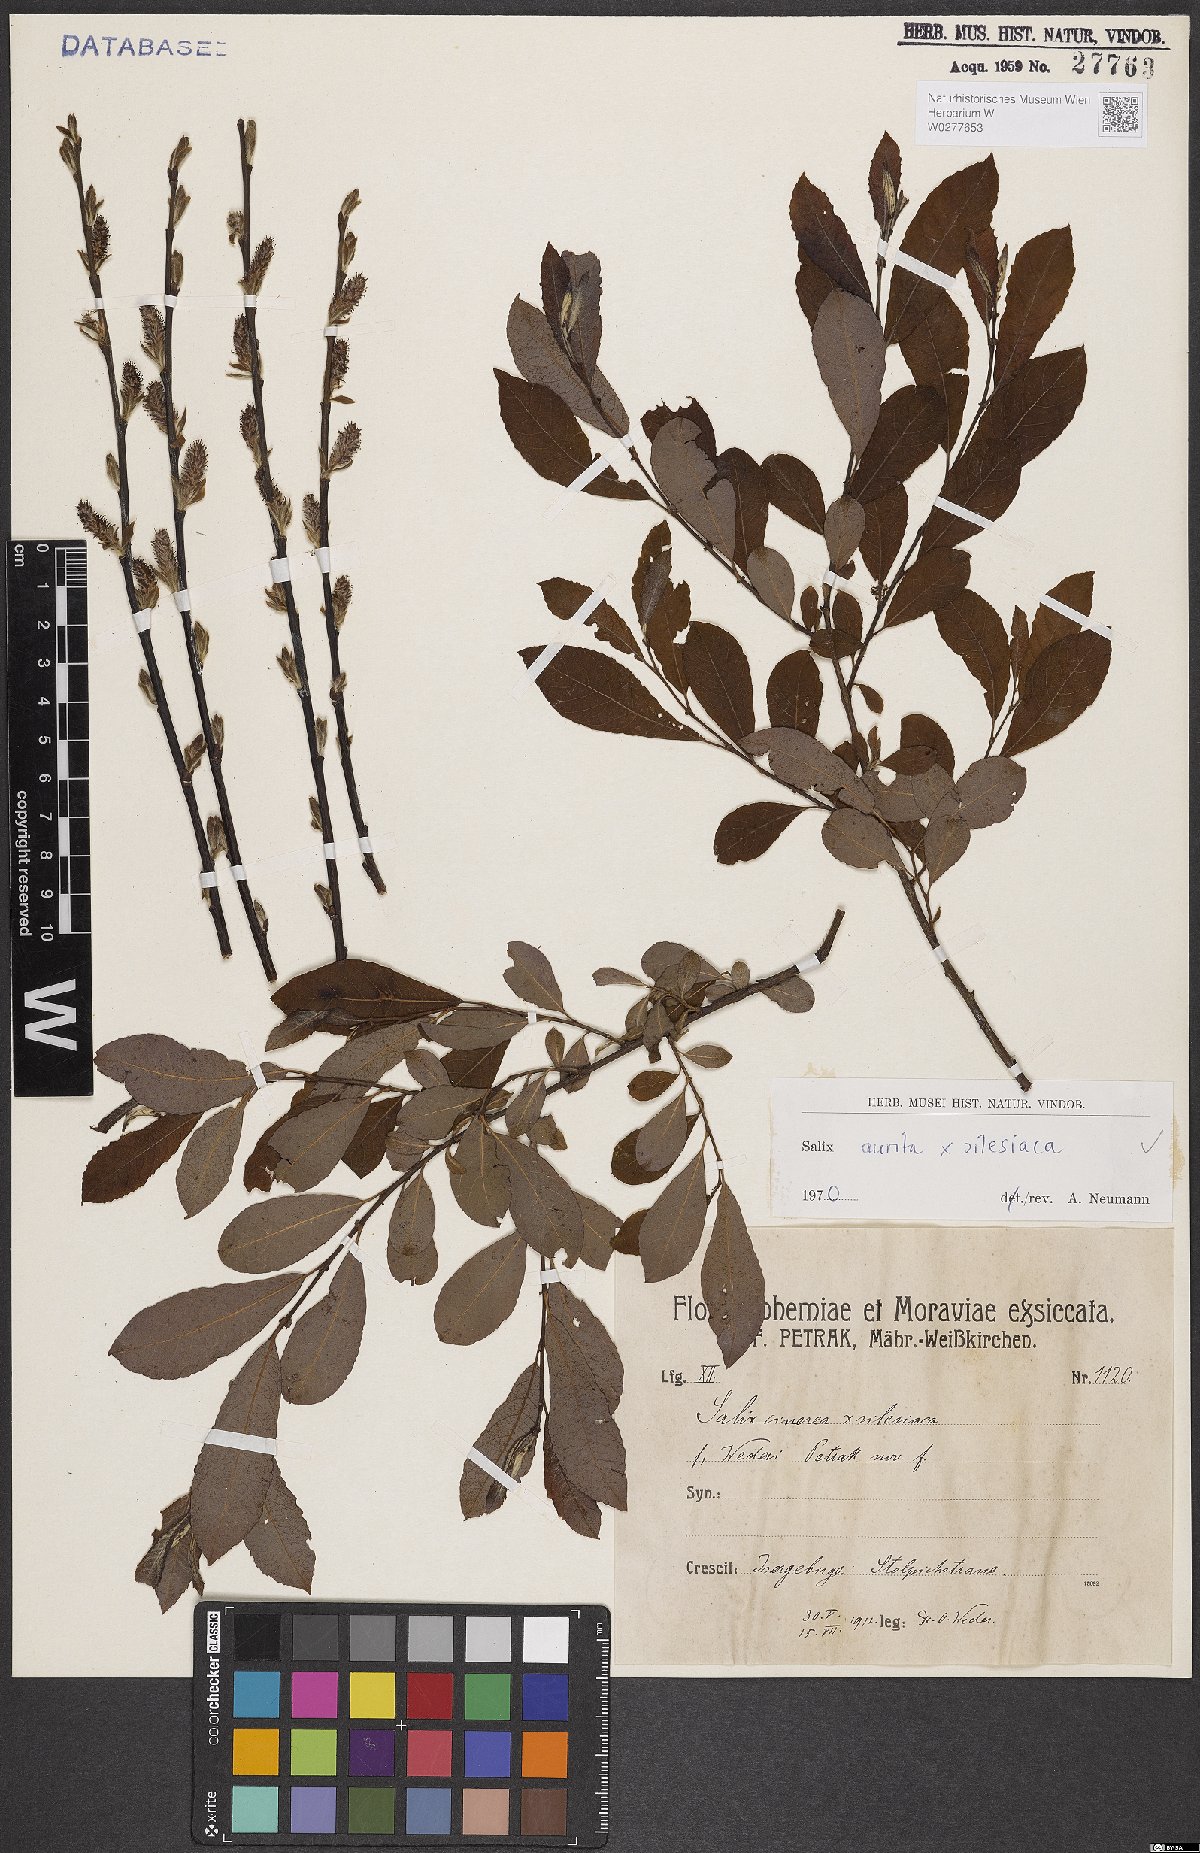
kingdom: Plantae
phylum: Tracheophyta
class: Magnoliopsida
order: Malpighiales
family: Salicaceae
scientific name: Salicaceae
